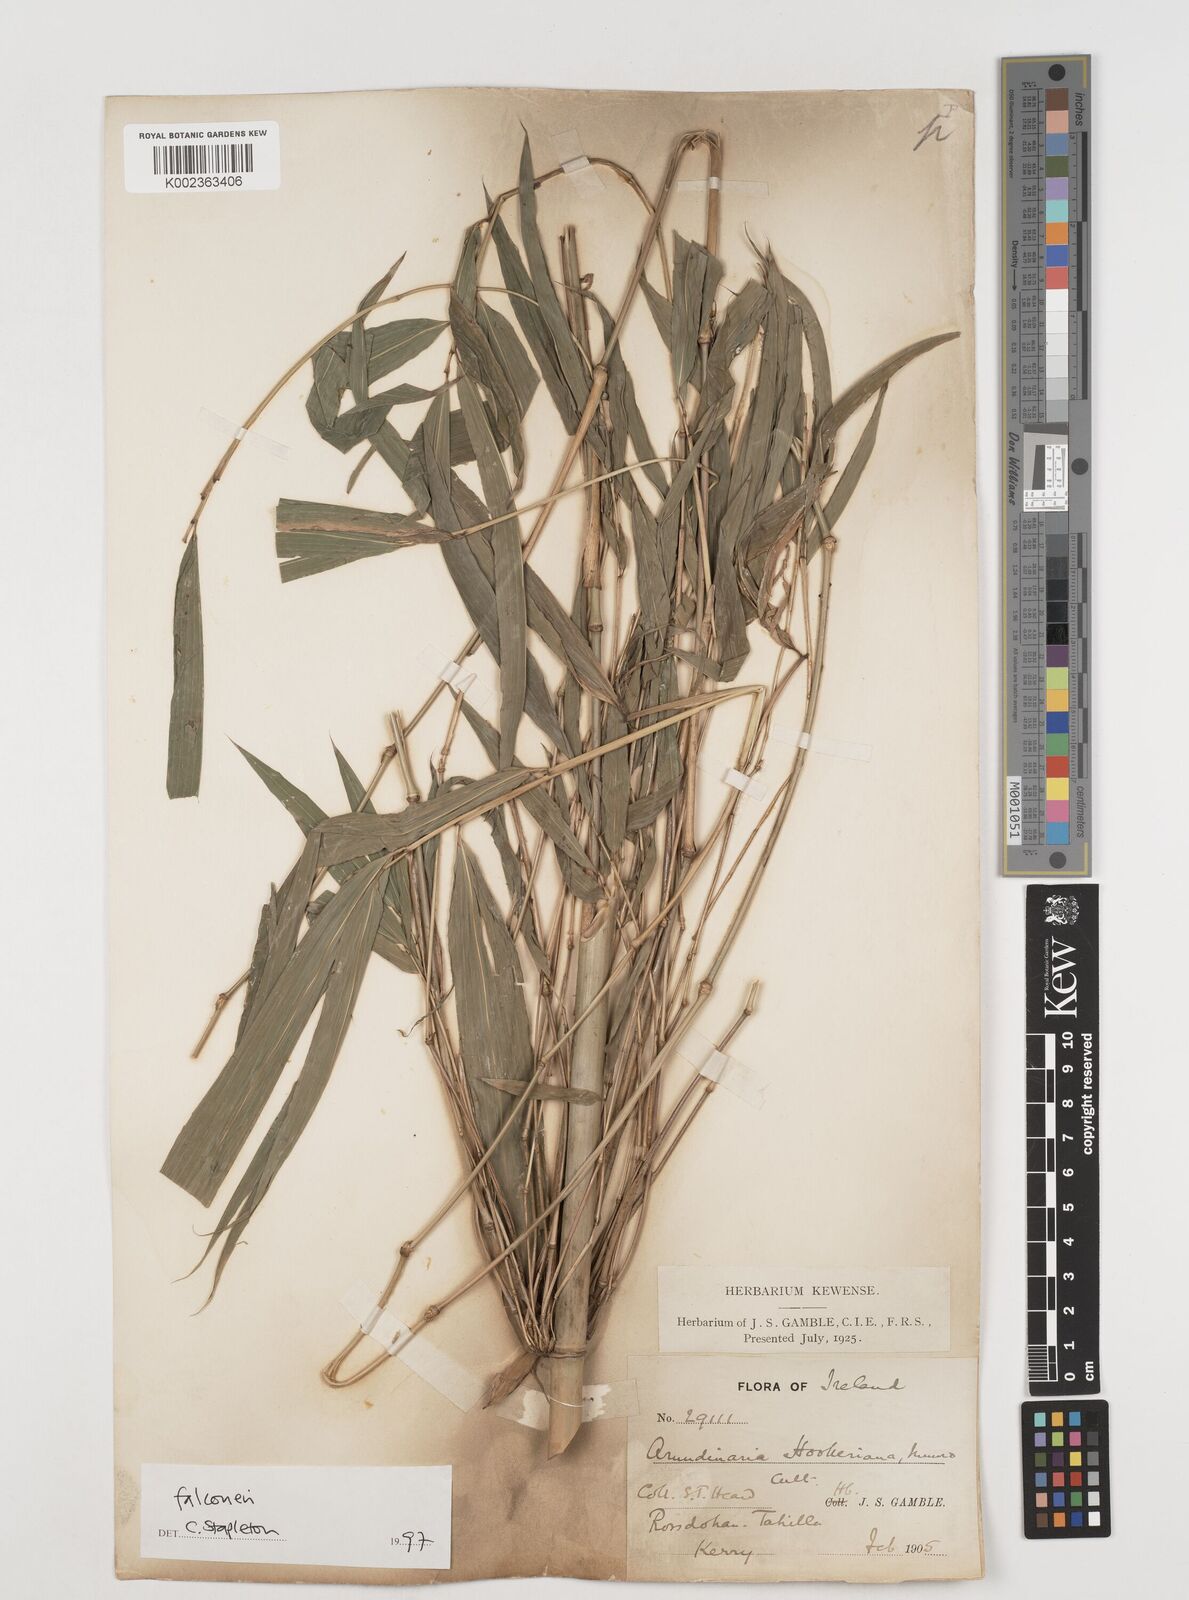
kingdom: Plantae
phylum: Tracheophyta
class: Liliopsida
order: Poales
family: Poaceae
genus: Himalayacalamus
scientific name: Himalayacalamus falconeri
